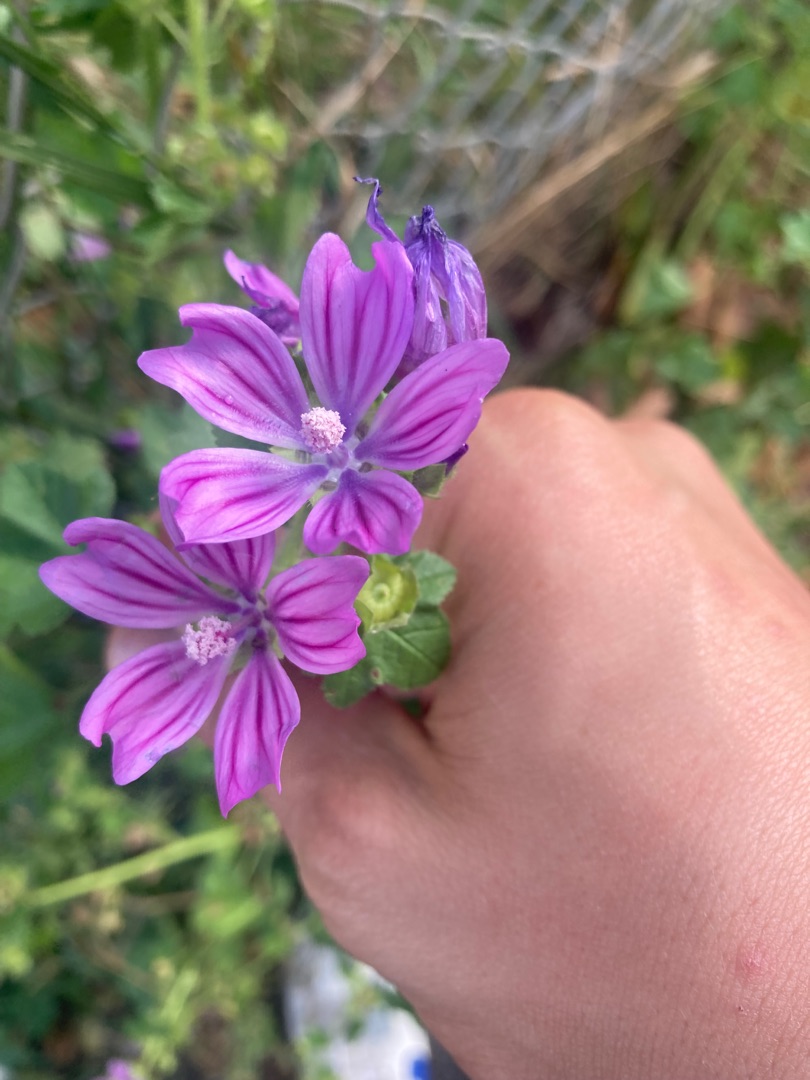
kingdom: Plantae
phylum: Tracheophyta
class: Magnoliopsida
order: Malvales
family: Malvaceae
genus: Malva
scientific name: Malva sylvestris
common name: Almindelig katost
